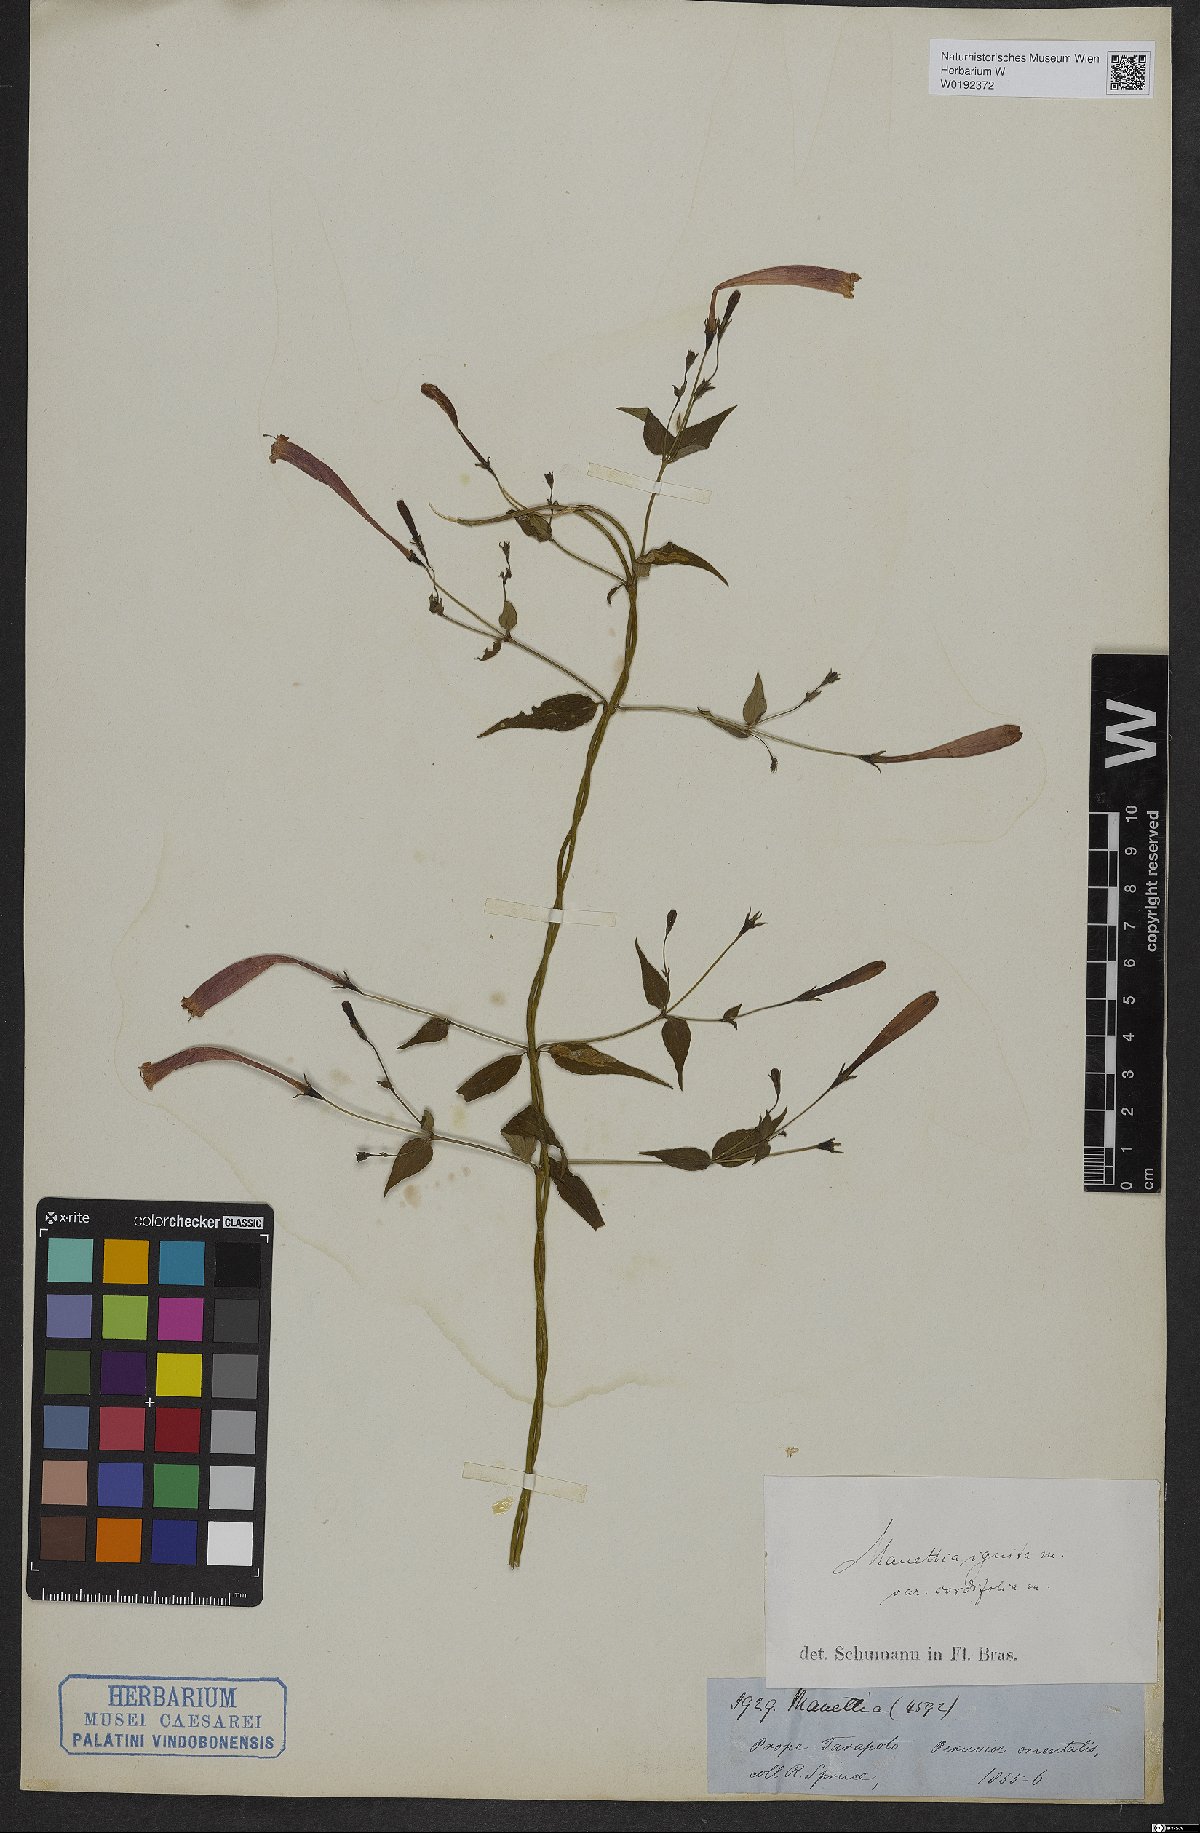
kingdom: Plantae
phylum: Tracheophyta
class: Magnoliopsida
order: Gentianales
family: Rubiaceae
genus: Manettia
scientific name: Manettia cordifolia
